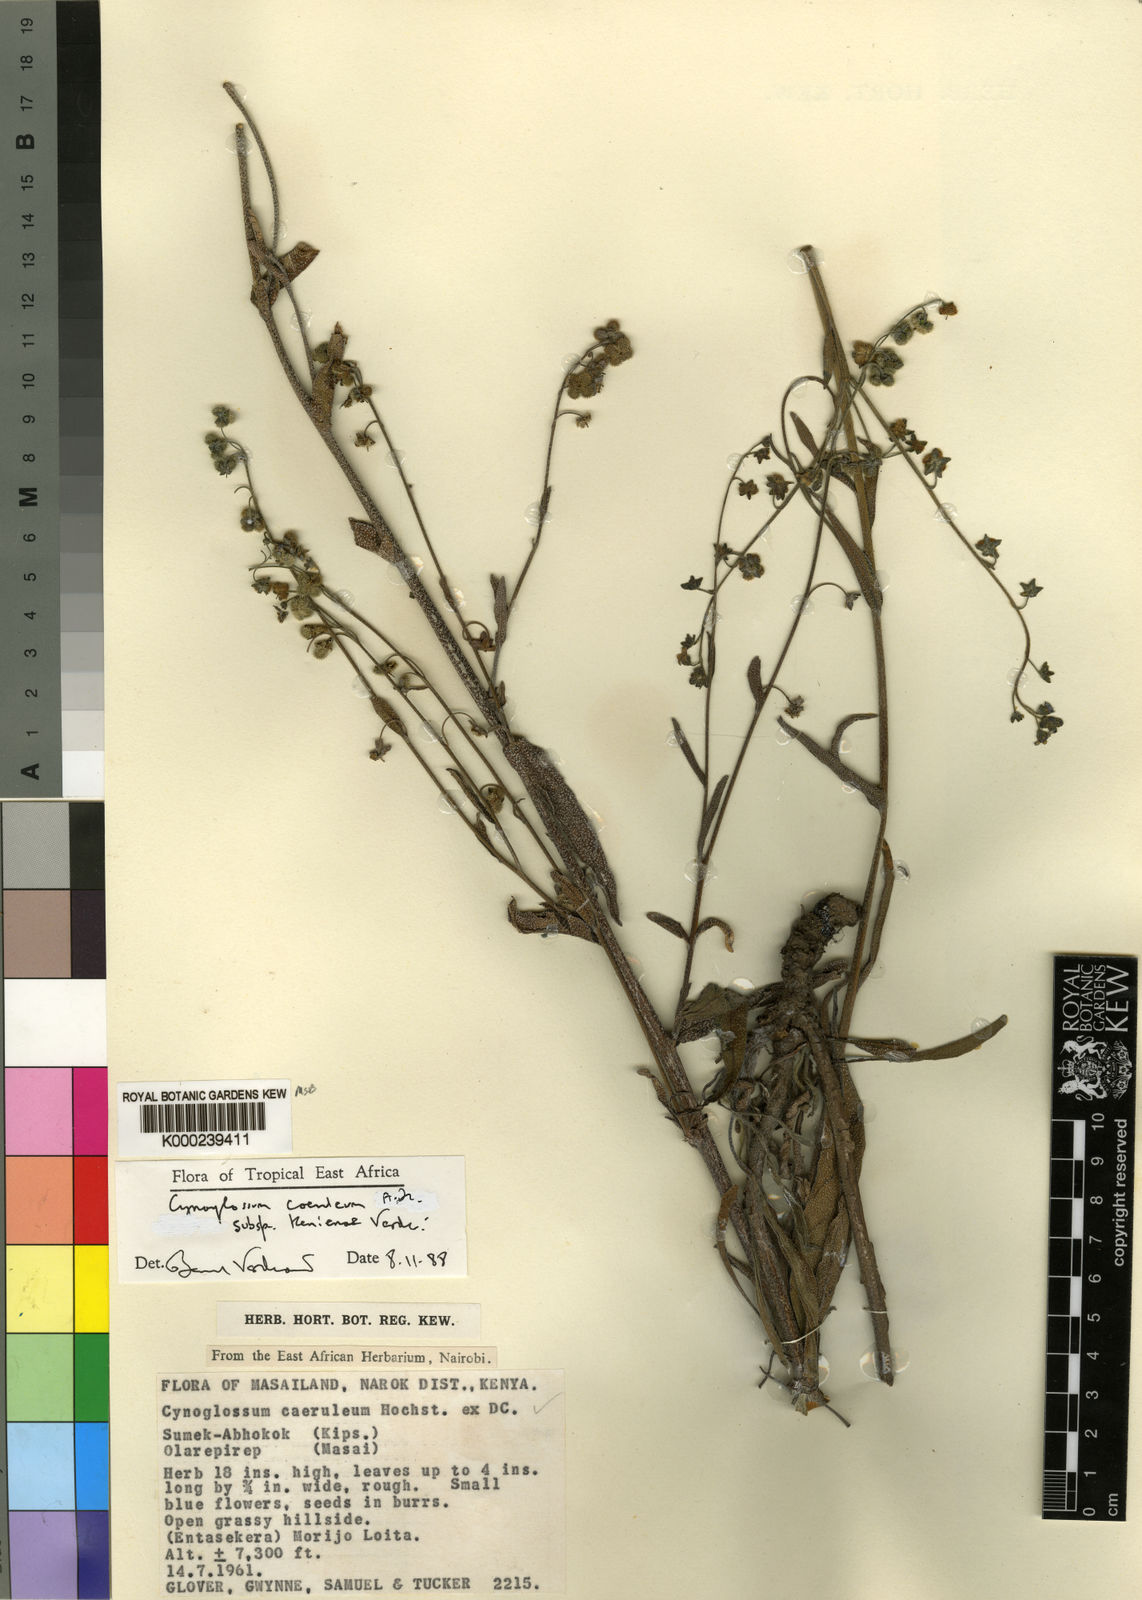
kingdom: Plantae
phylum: Tracheophyta
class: Magnoliopsida
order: Boraginales
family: Boraginaceae
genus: Paracynoglossum
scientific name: Paracynoglossum afrocaeruleum
